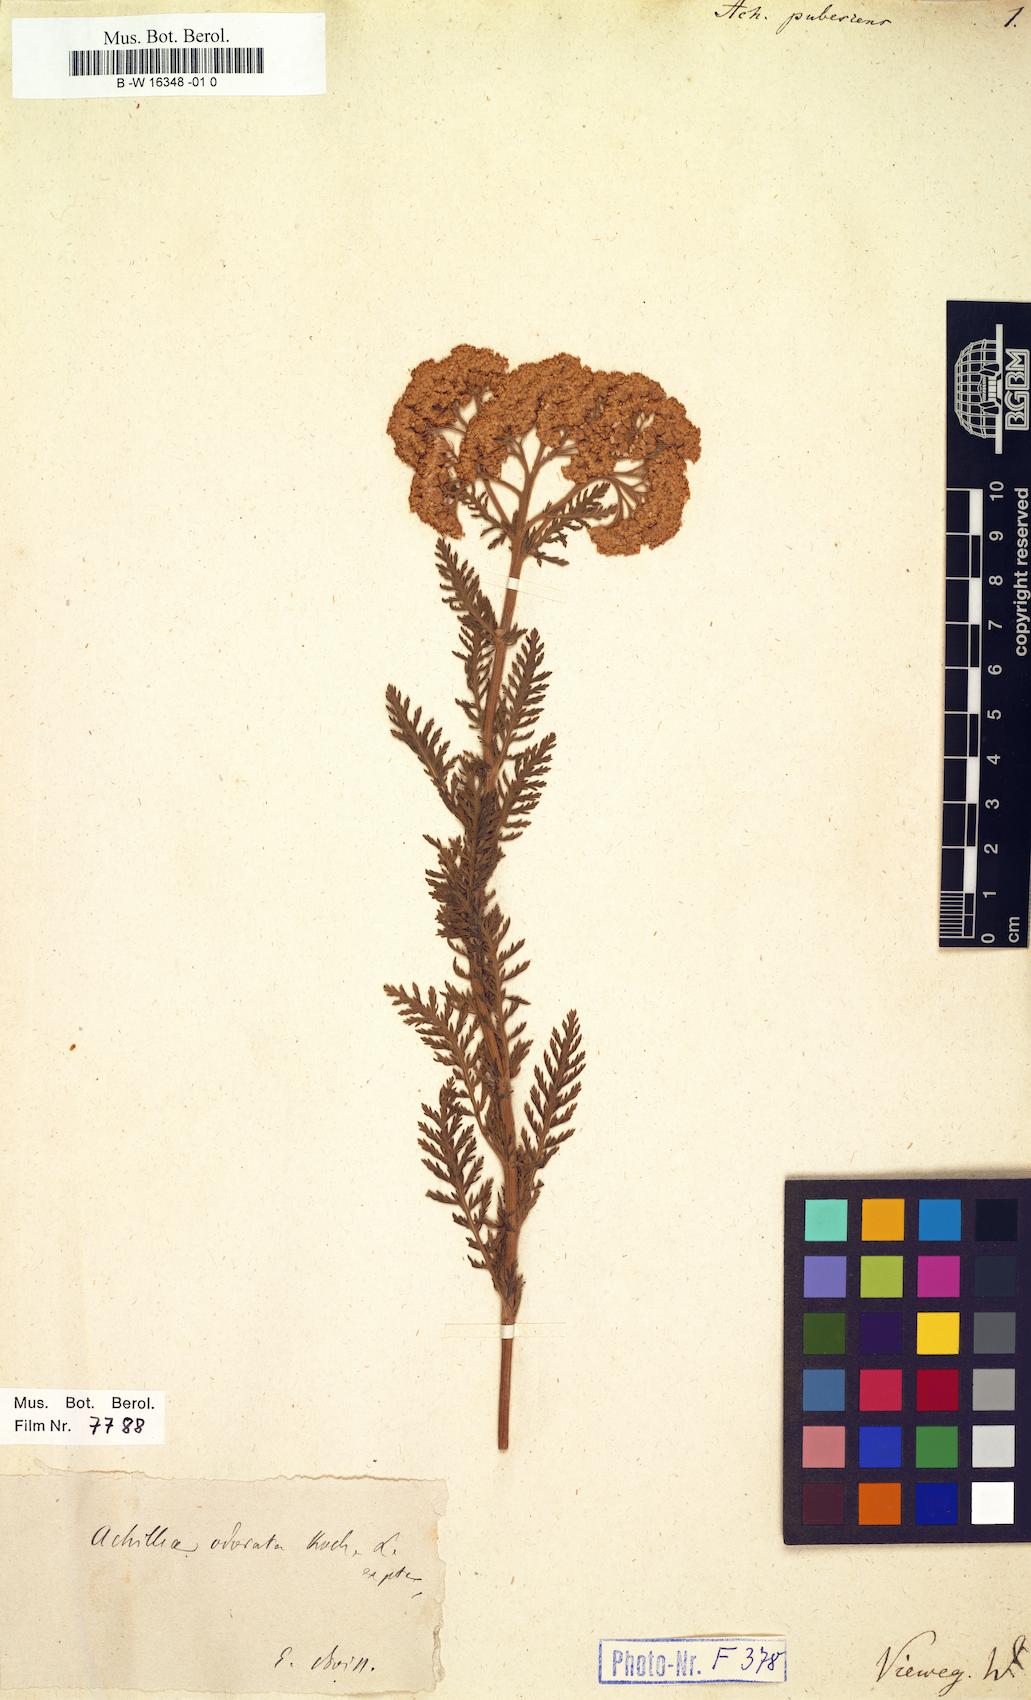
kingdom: Plantae
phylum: Tracheophyta
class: Magnoliopsida
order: Asterales
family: Asteraceae
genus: Achillea
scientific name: Achillea odorata
